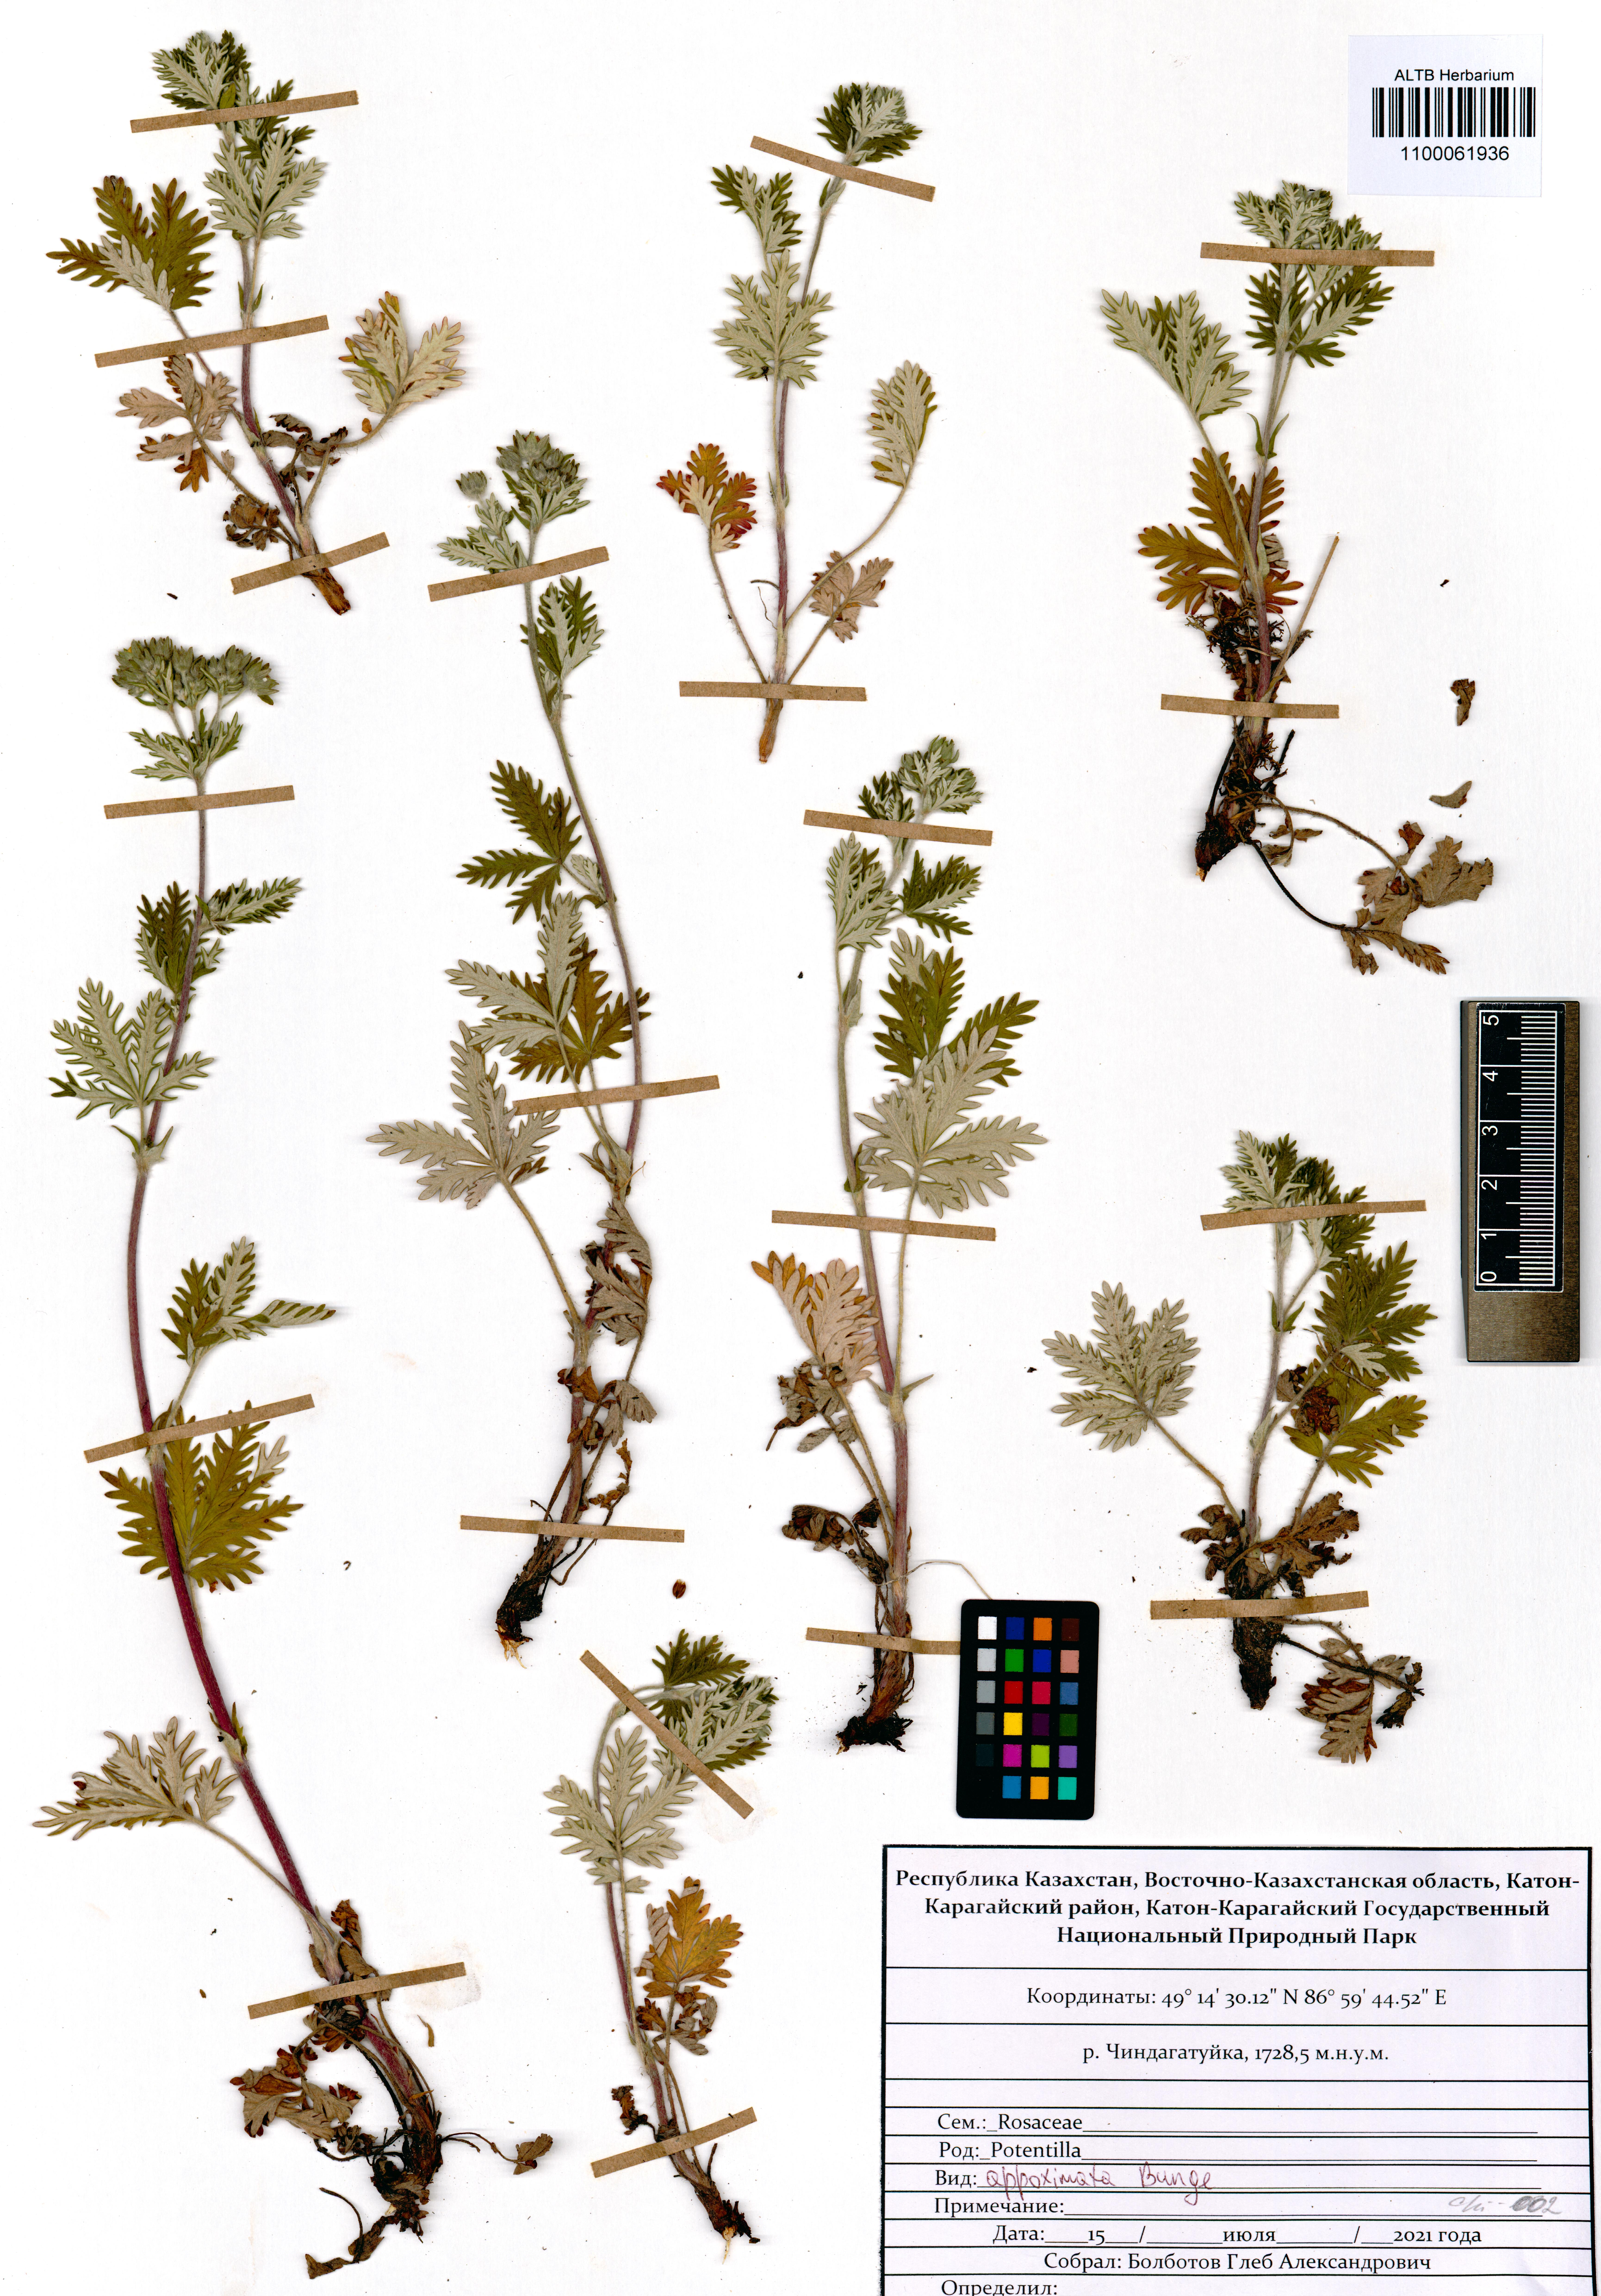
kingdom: Plantae
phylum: Tracheophyta
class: Magnoliopsida
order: Rosales
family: Rosaceae
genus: Potentilla
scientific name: Potentilla conferta
